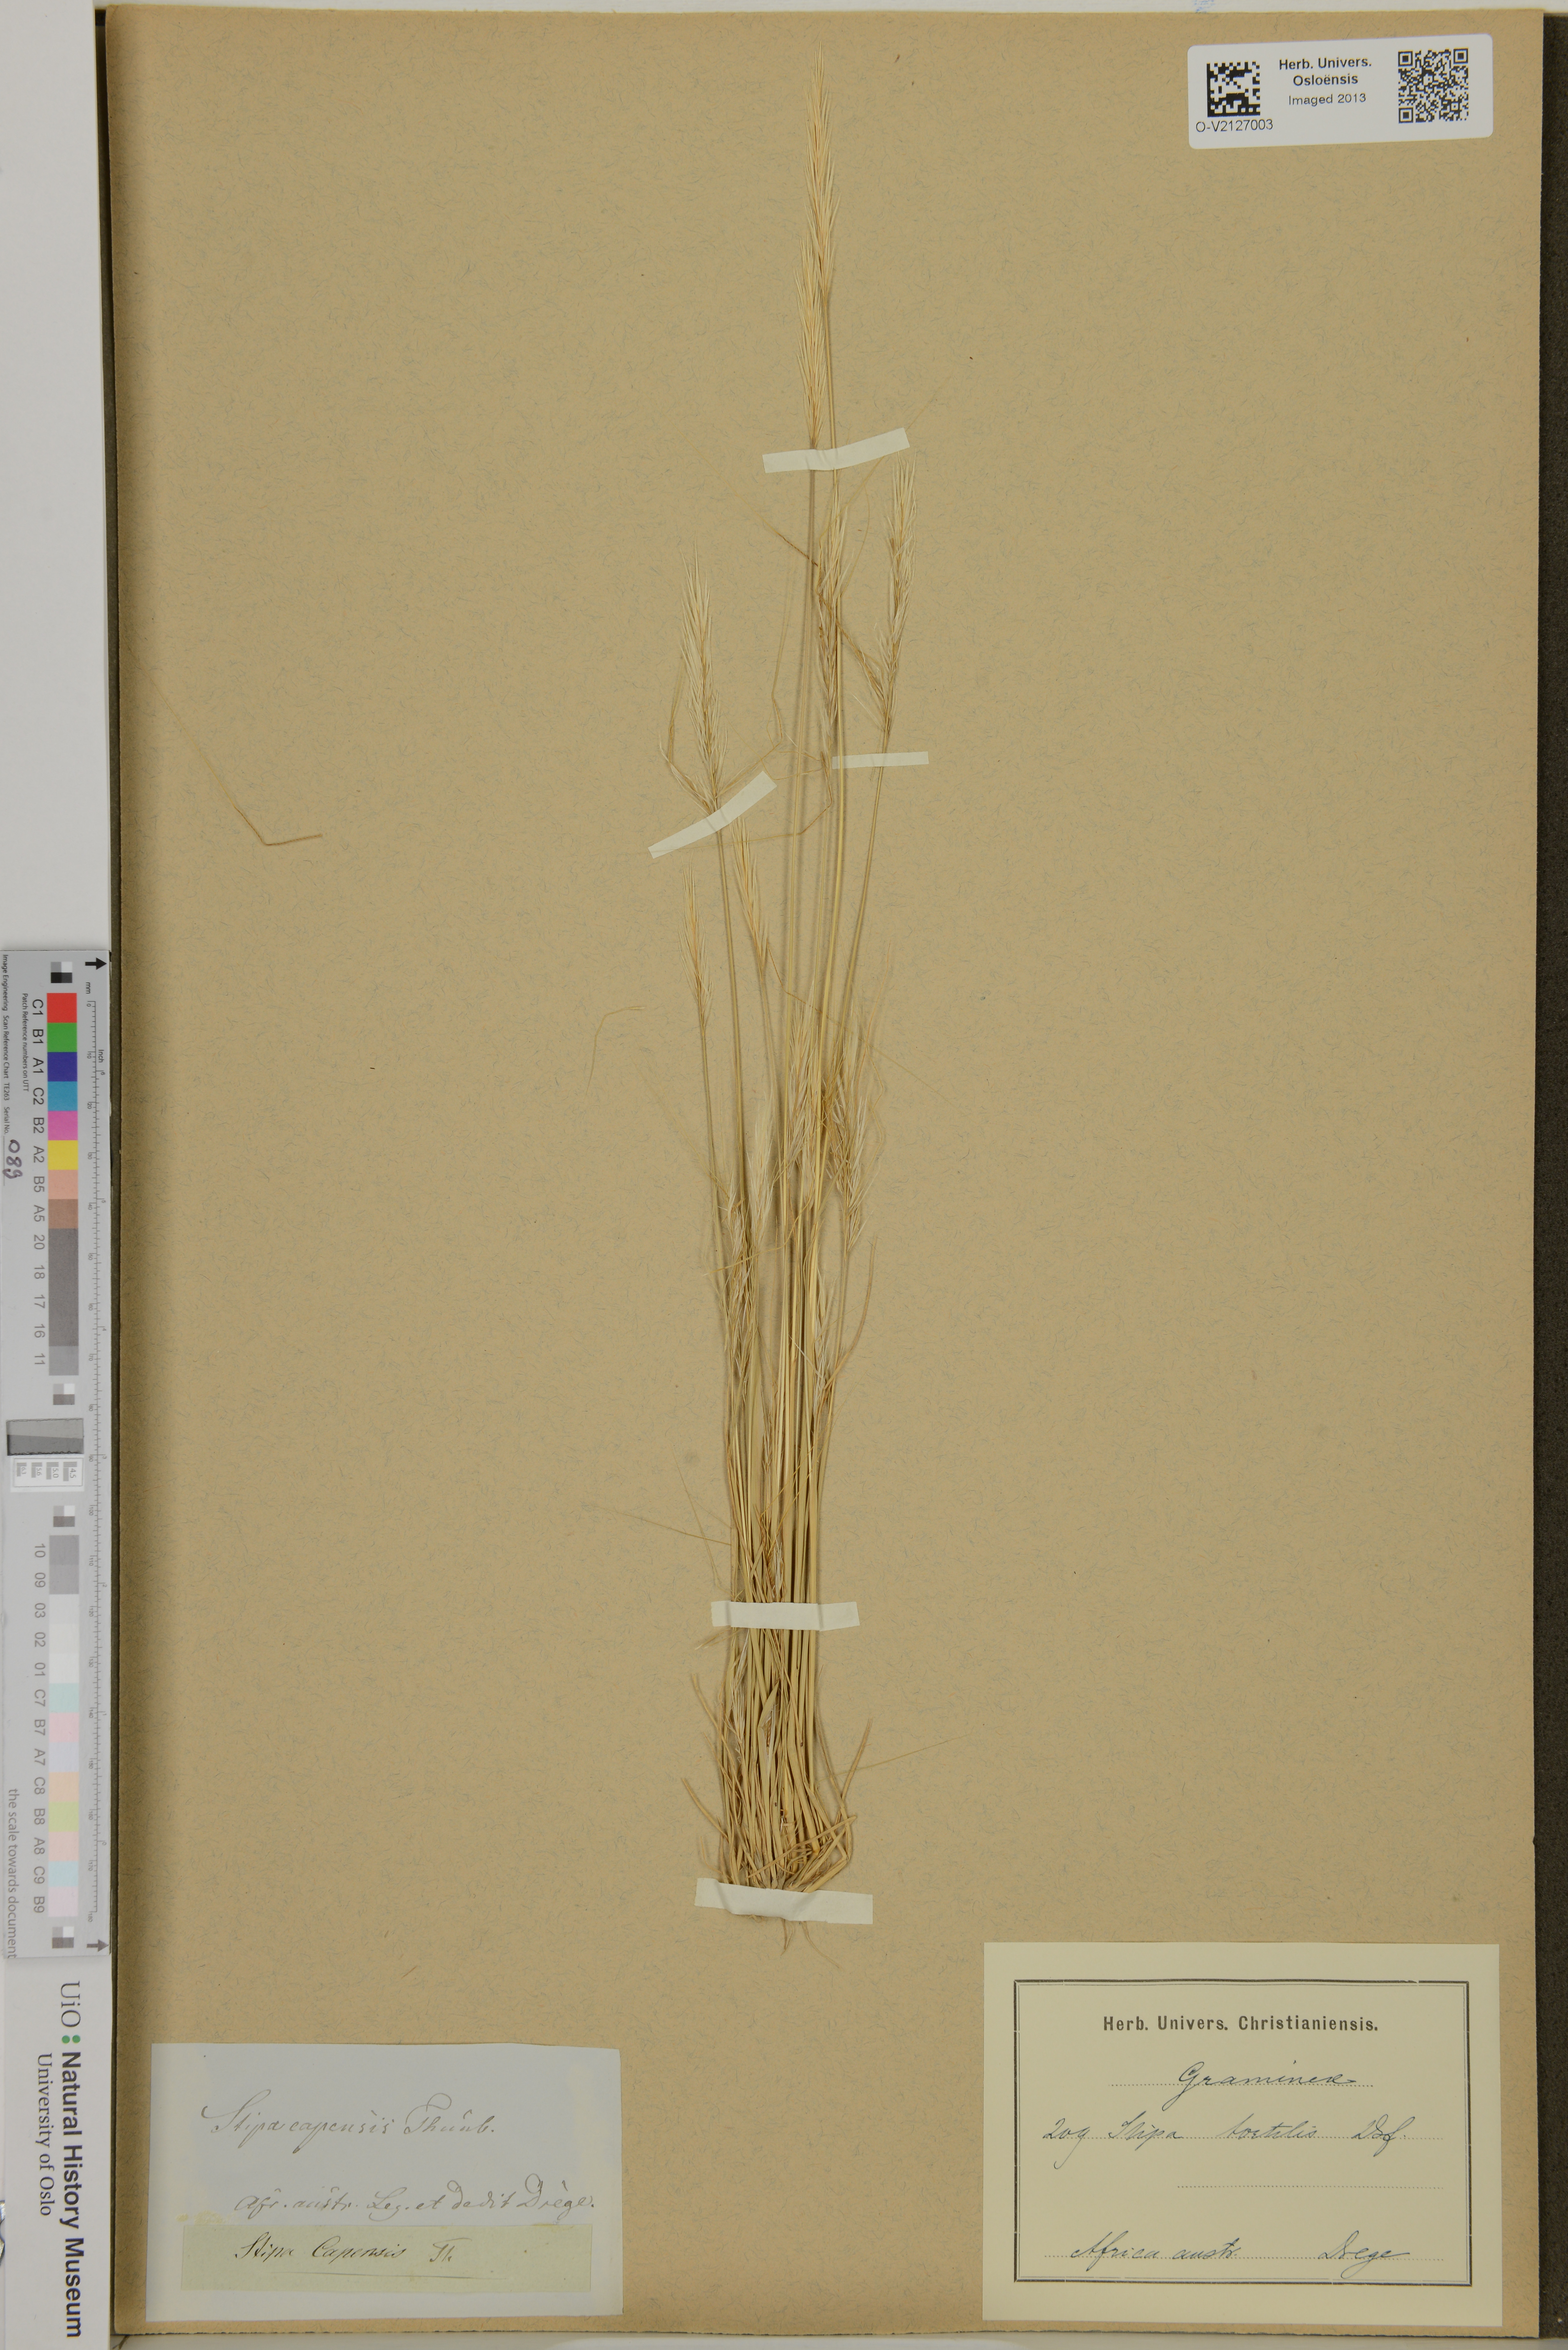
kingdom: Plantae
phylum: Tracheophyta
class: Liliopsida
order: Poales
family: Poaceae
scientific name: Poaceae
